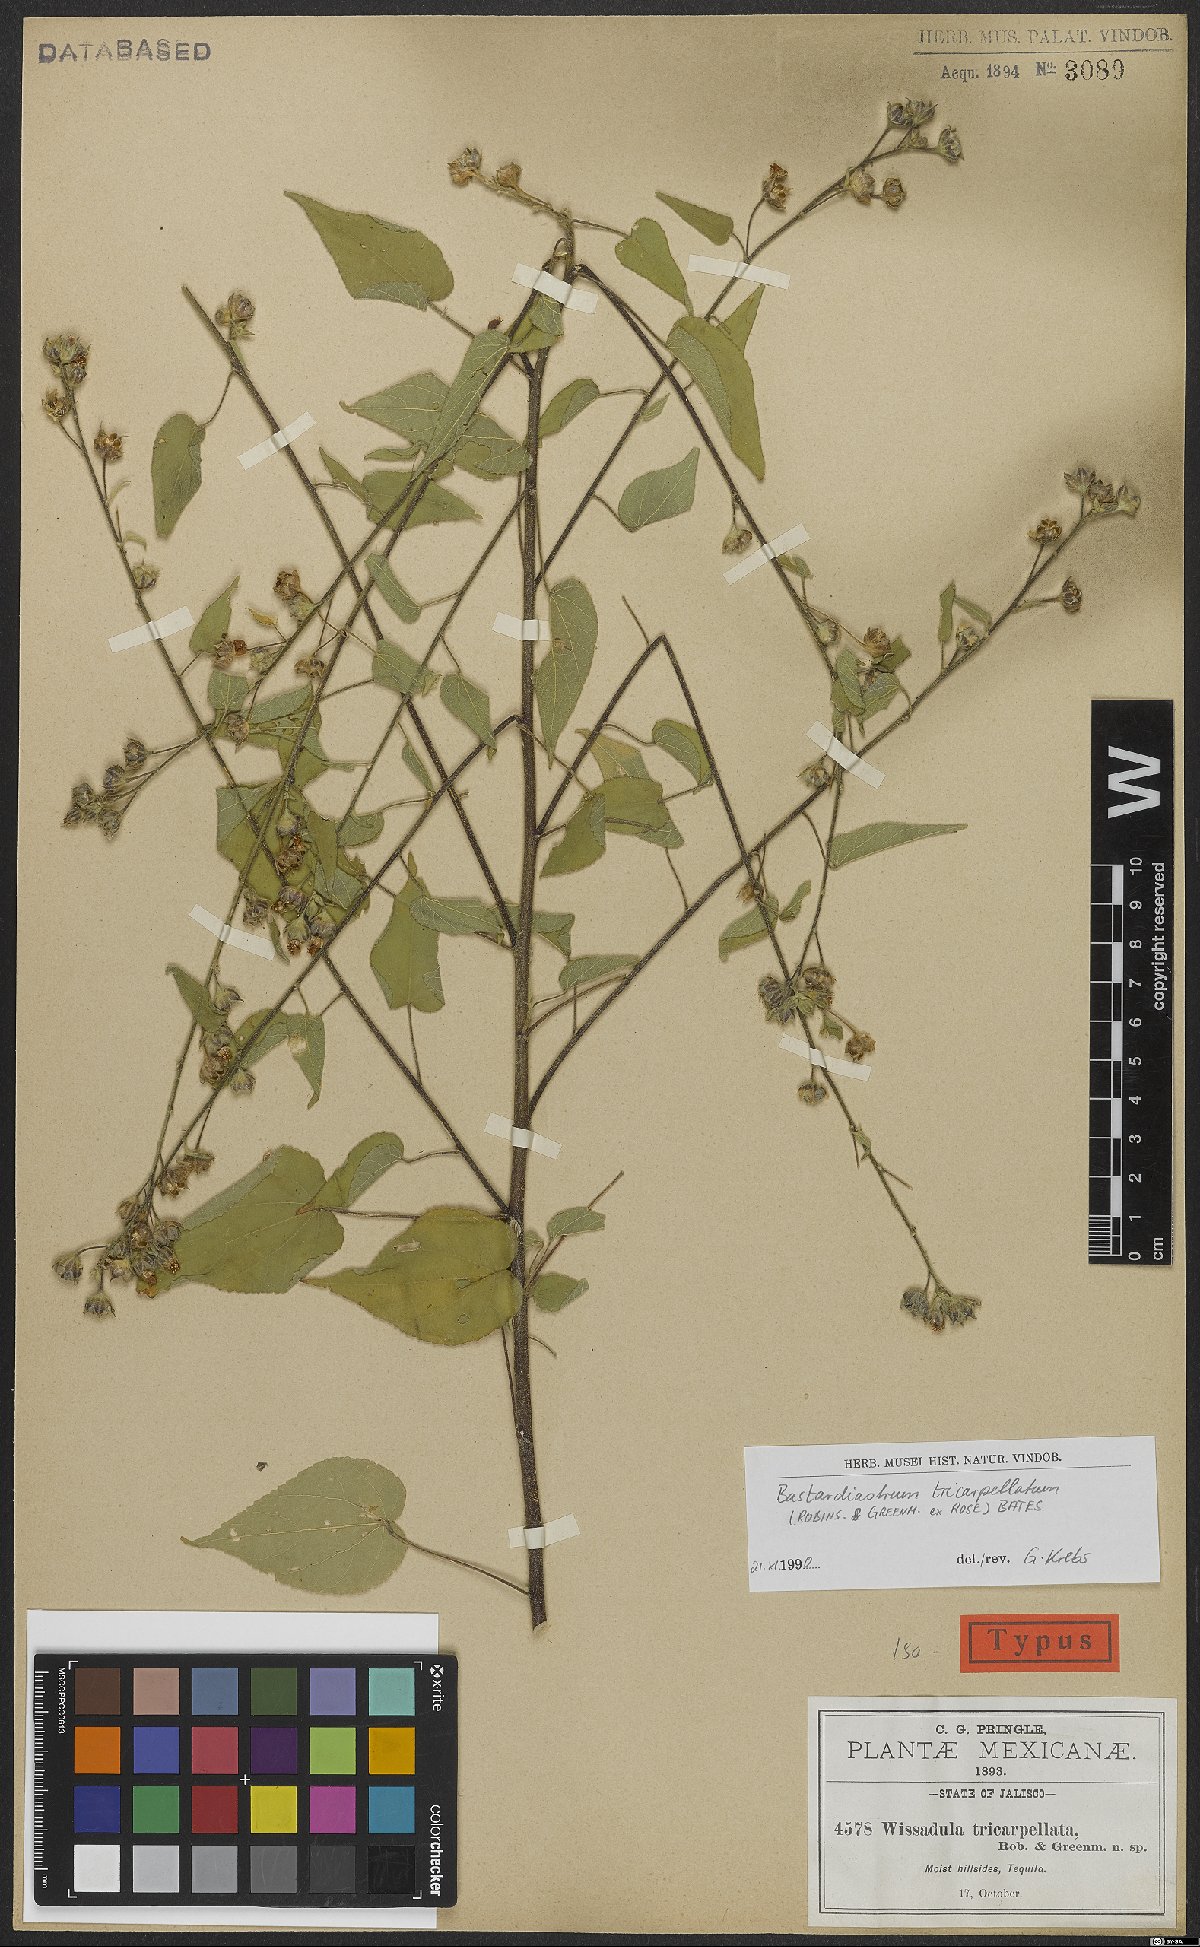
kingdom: Plantae
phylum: Tracheophyta
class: Magnoliopsida
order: Malvales
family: Malvaceae
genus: Bastardiastrum
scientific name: Bastardiastrum tricarpellatum
